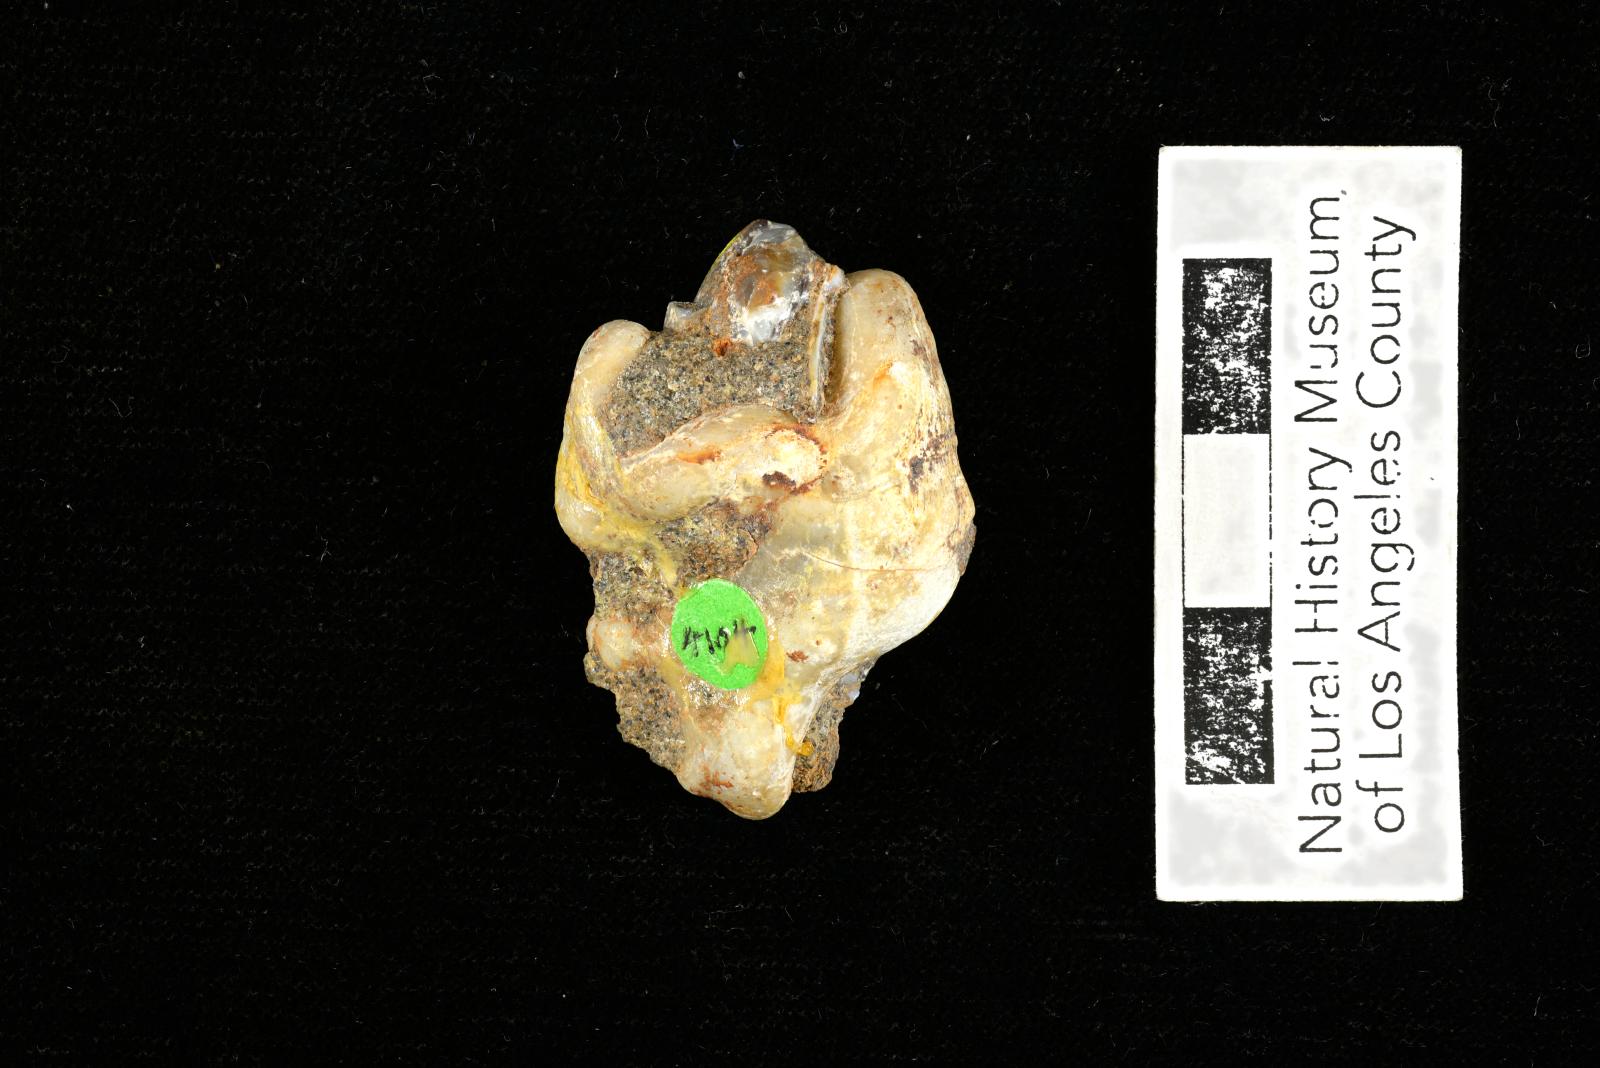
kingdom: Animalia
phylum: Mollusca
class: Gastropoda
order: Littorinimorpha
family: Aporrhaidae
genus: Pyktes
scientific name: Pyktes aspris
